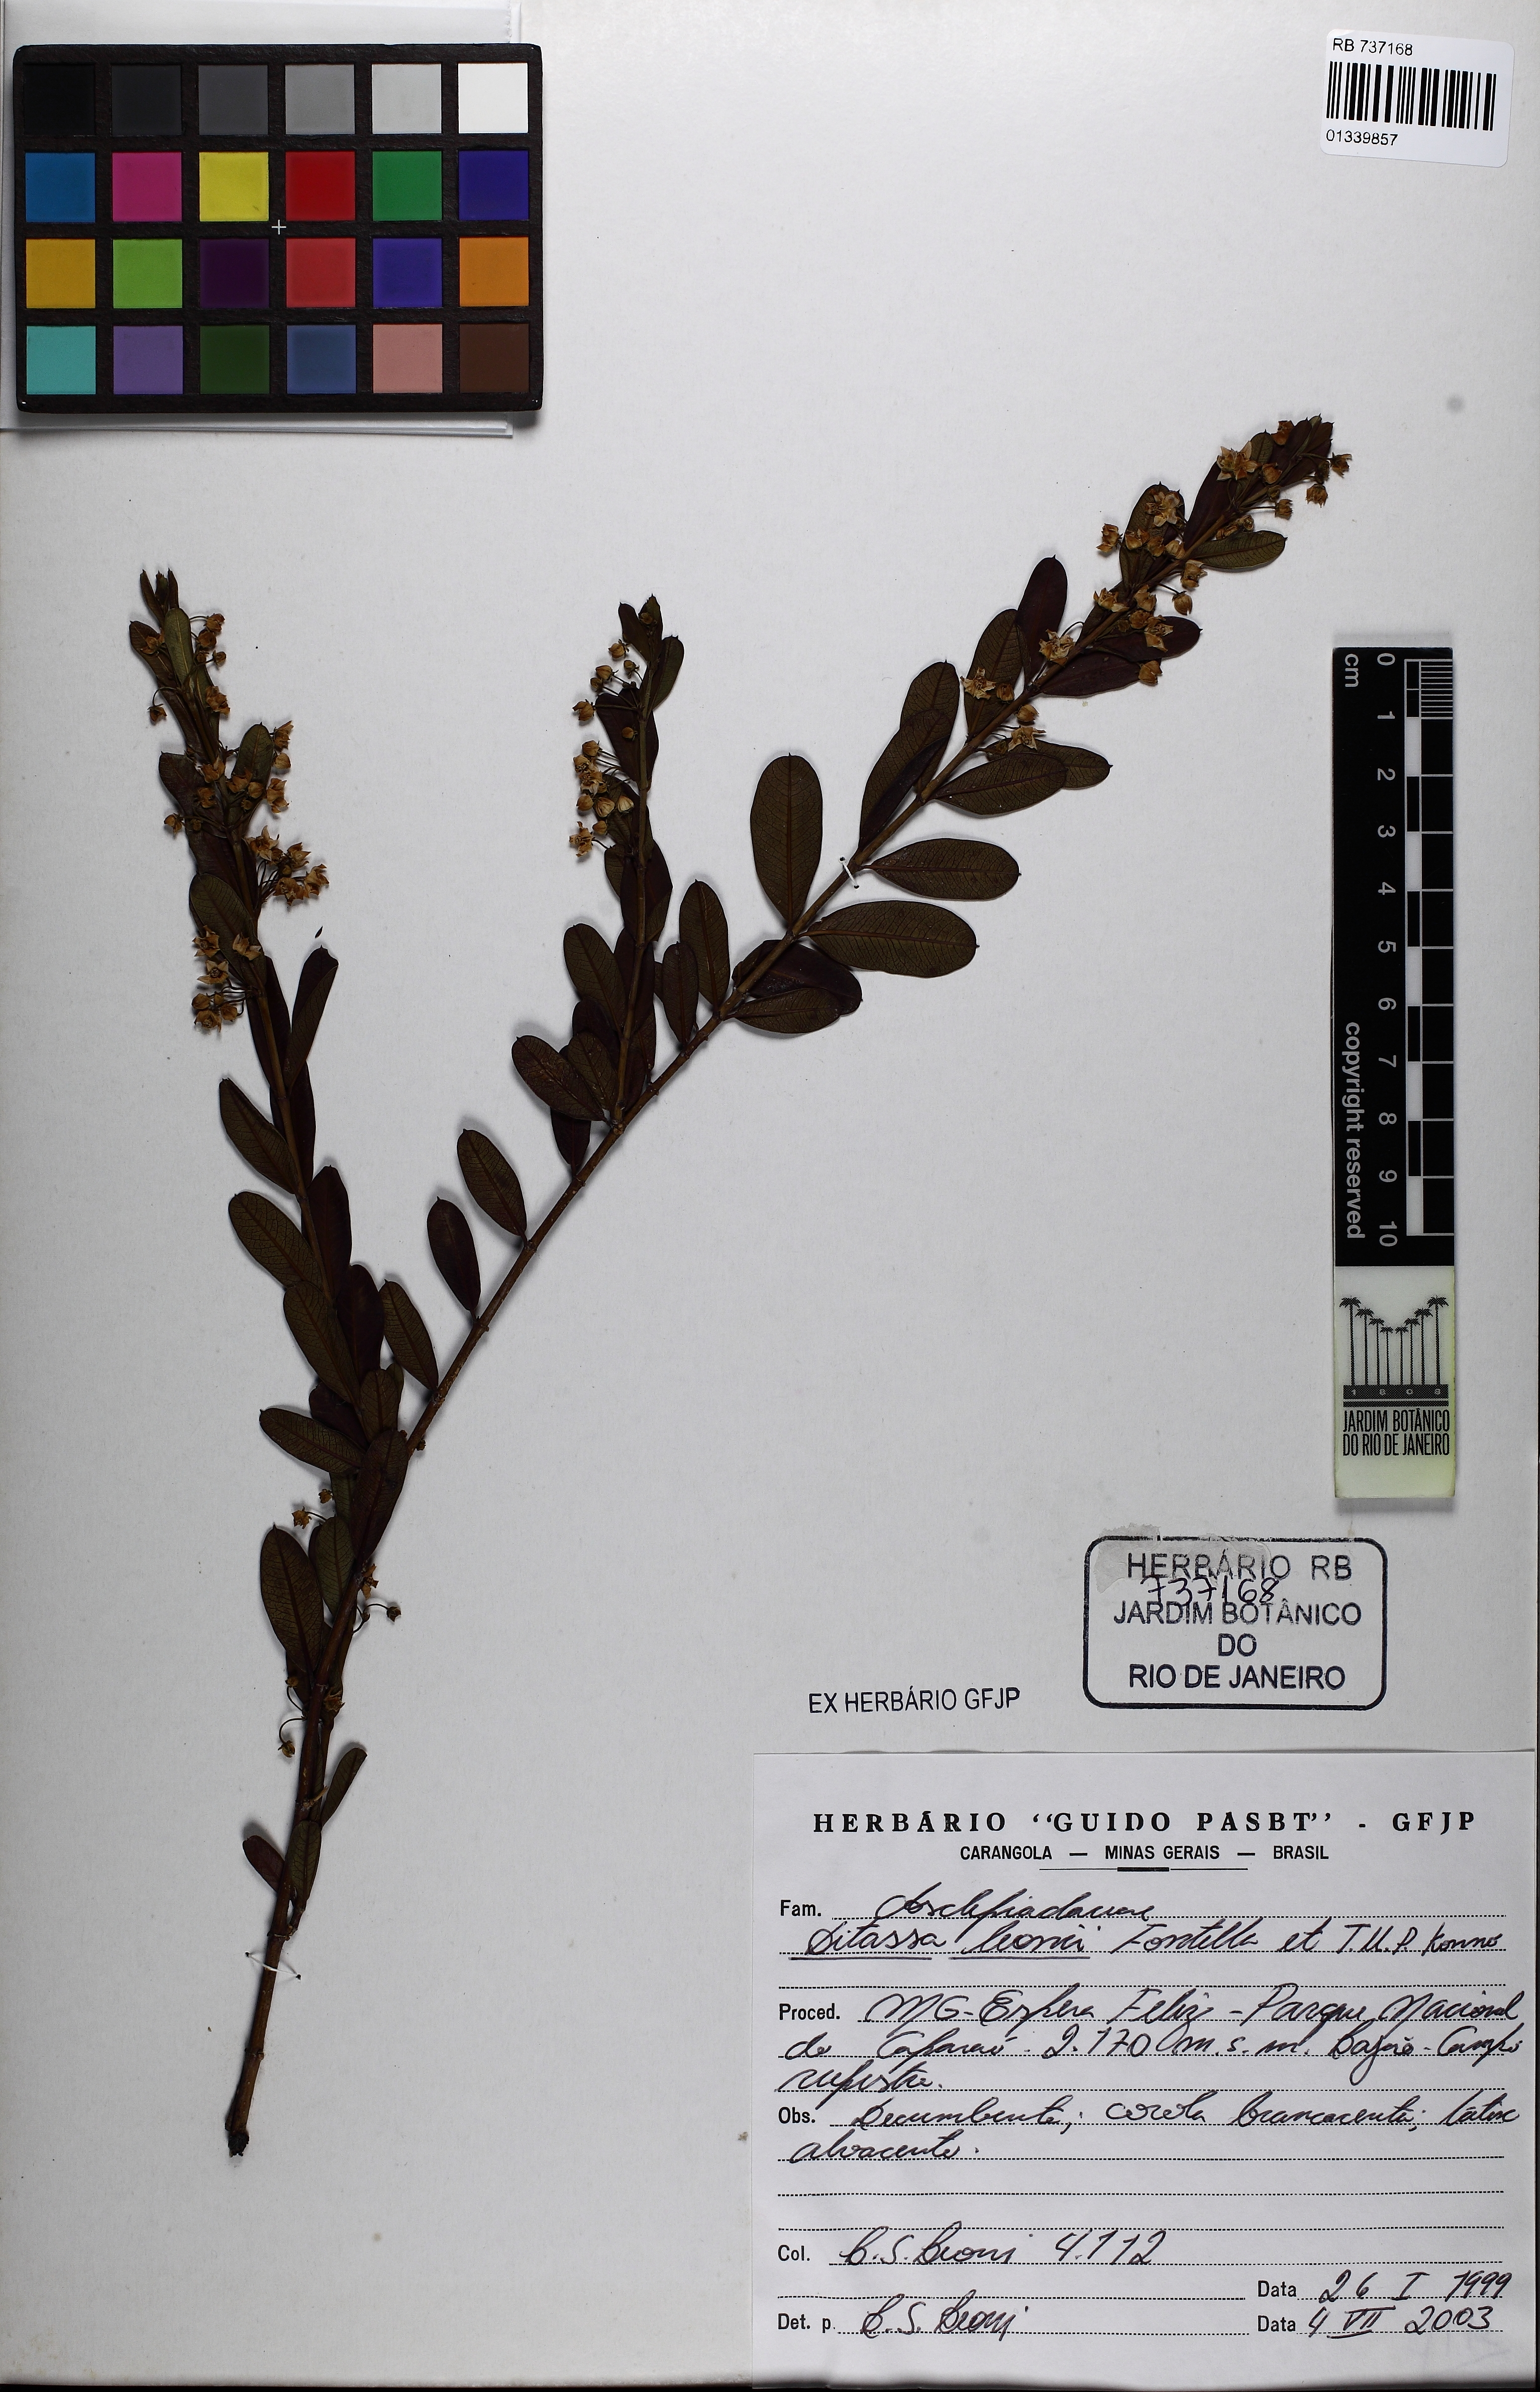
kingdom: Plantae
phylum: Tracheophyta
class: Magnoliopsida
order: Gentianales
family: Apocynaceae
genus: Ditassa
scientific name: Ditassa leonii
